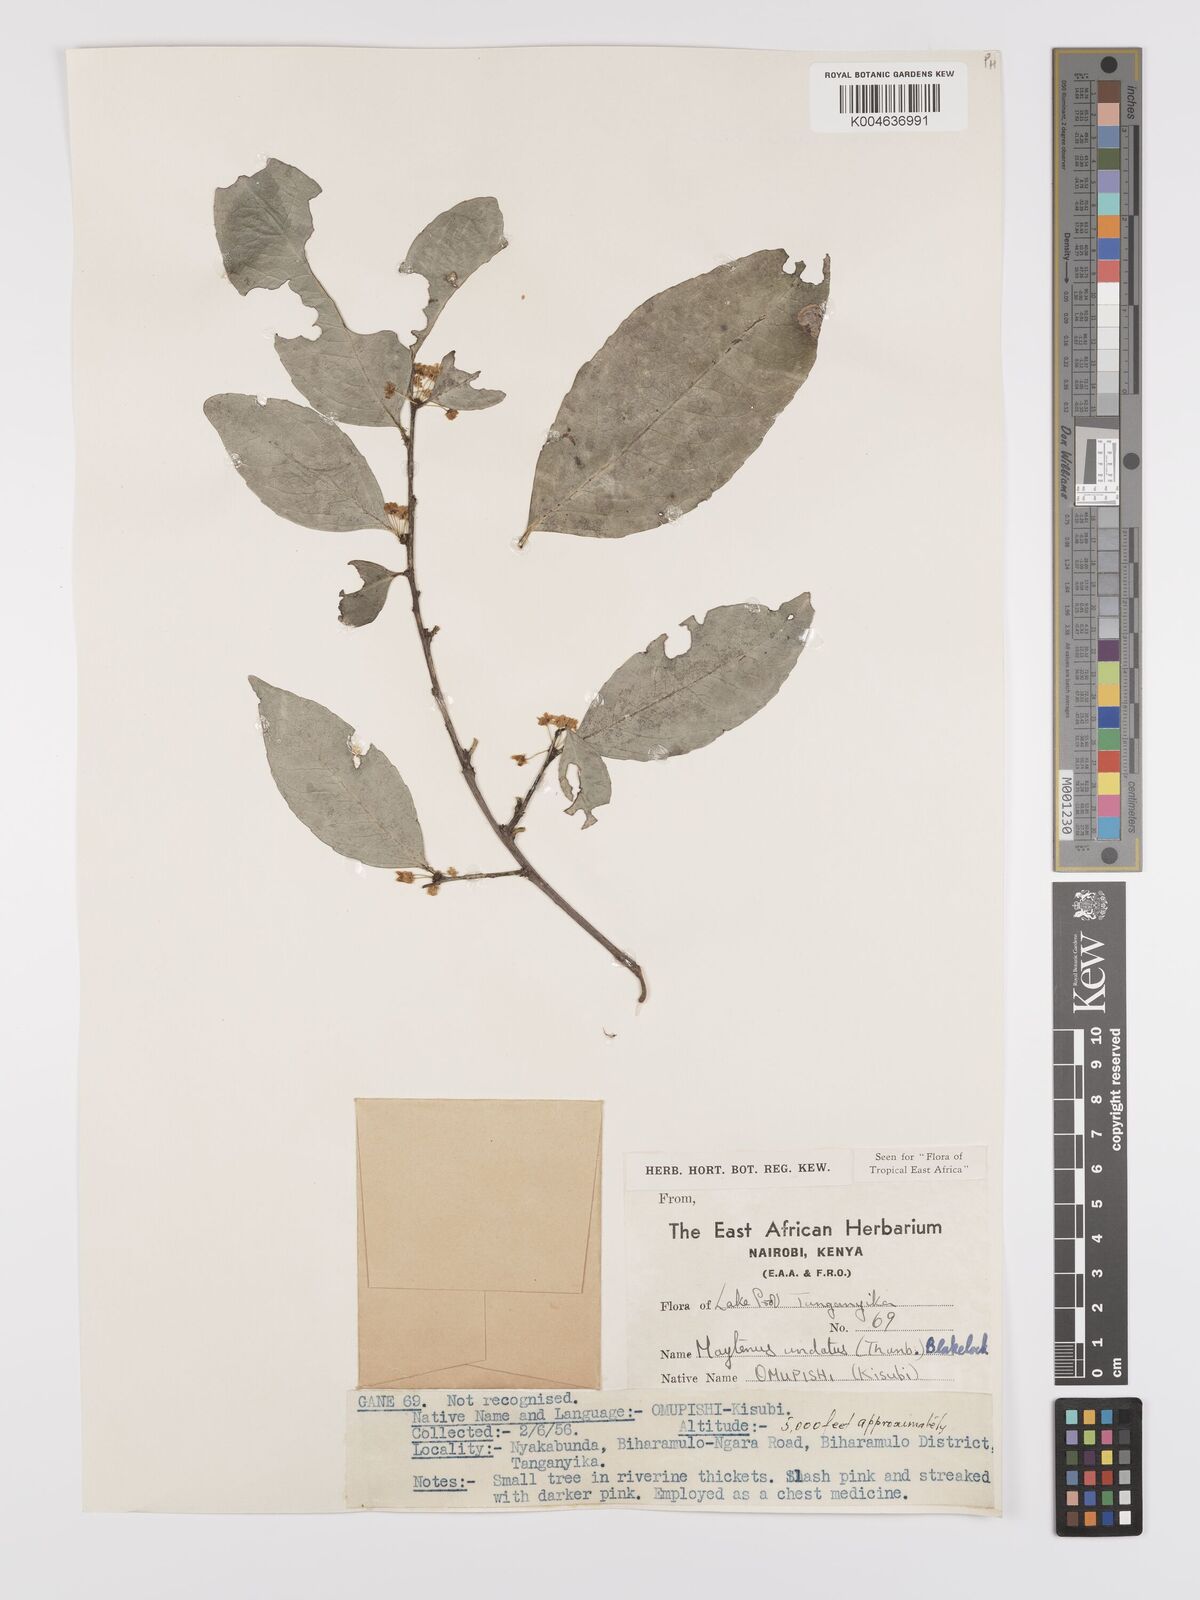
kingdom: Plantae
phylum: Tracheophyta
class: Magnoliopsida
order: Celastrales
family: Celastraceae
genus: Gymnosporia
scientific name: Gymnosporia undata
